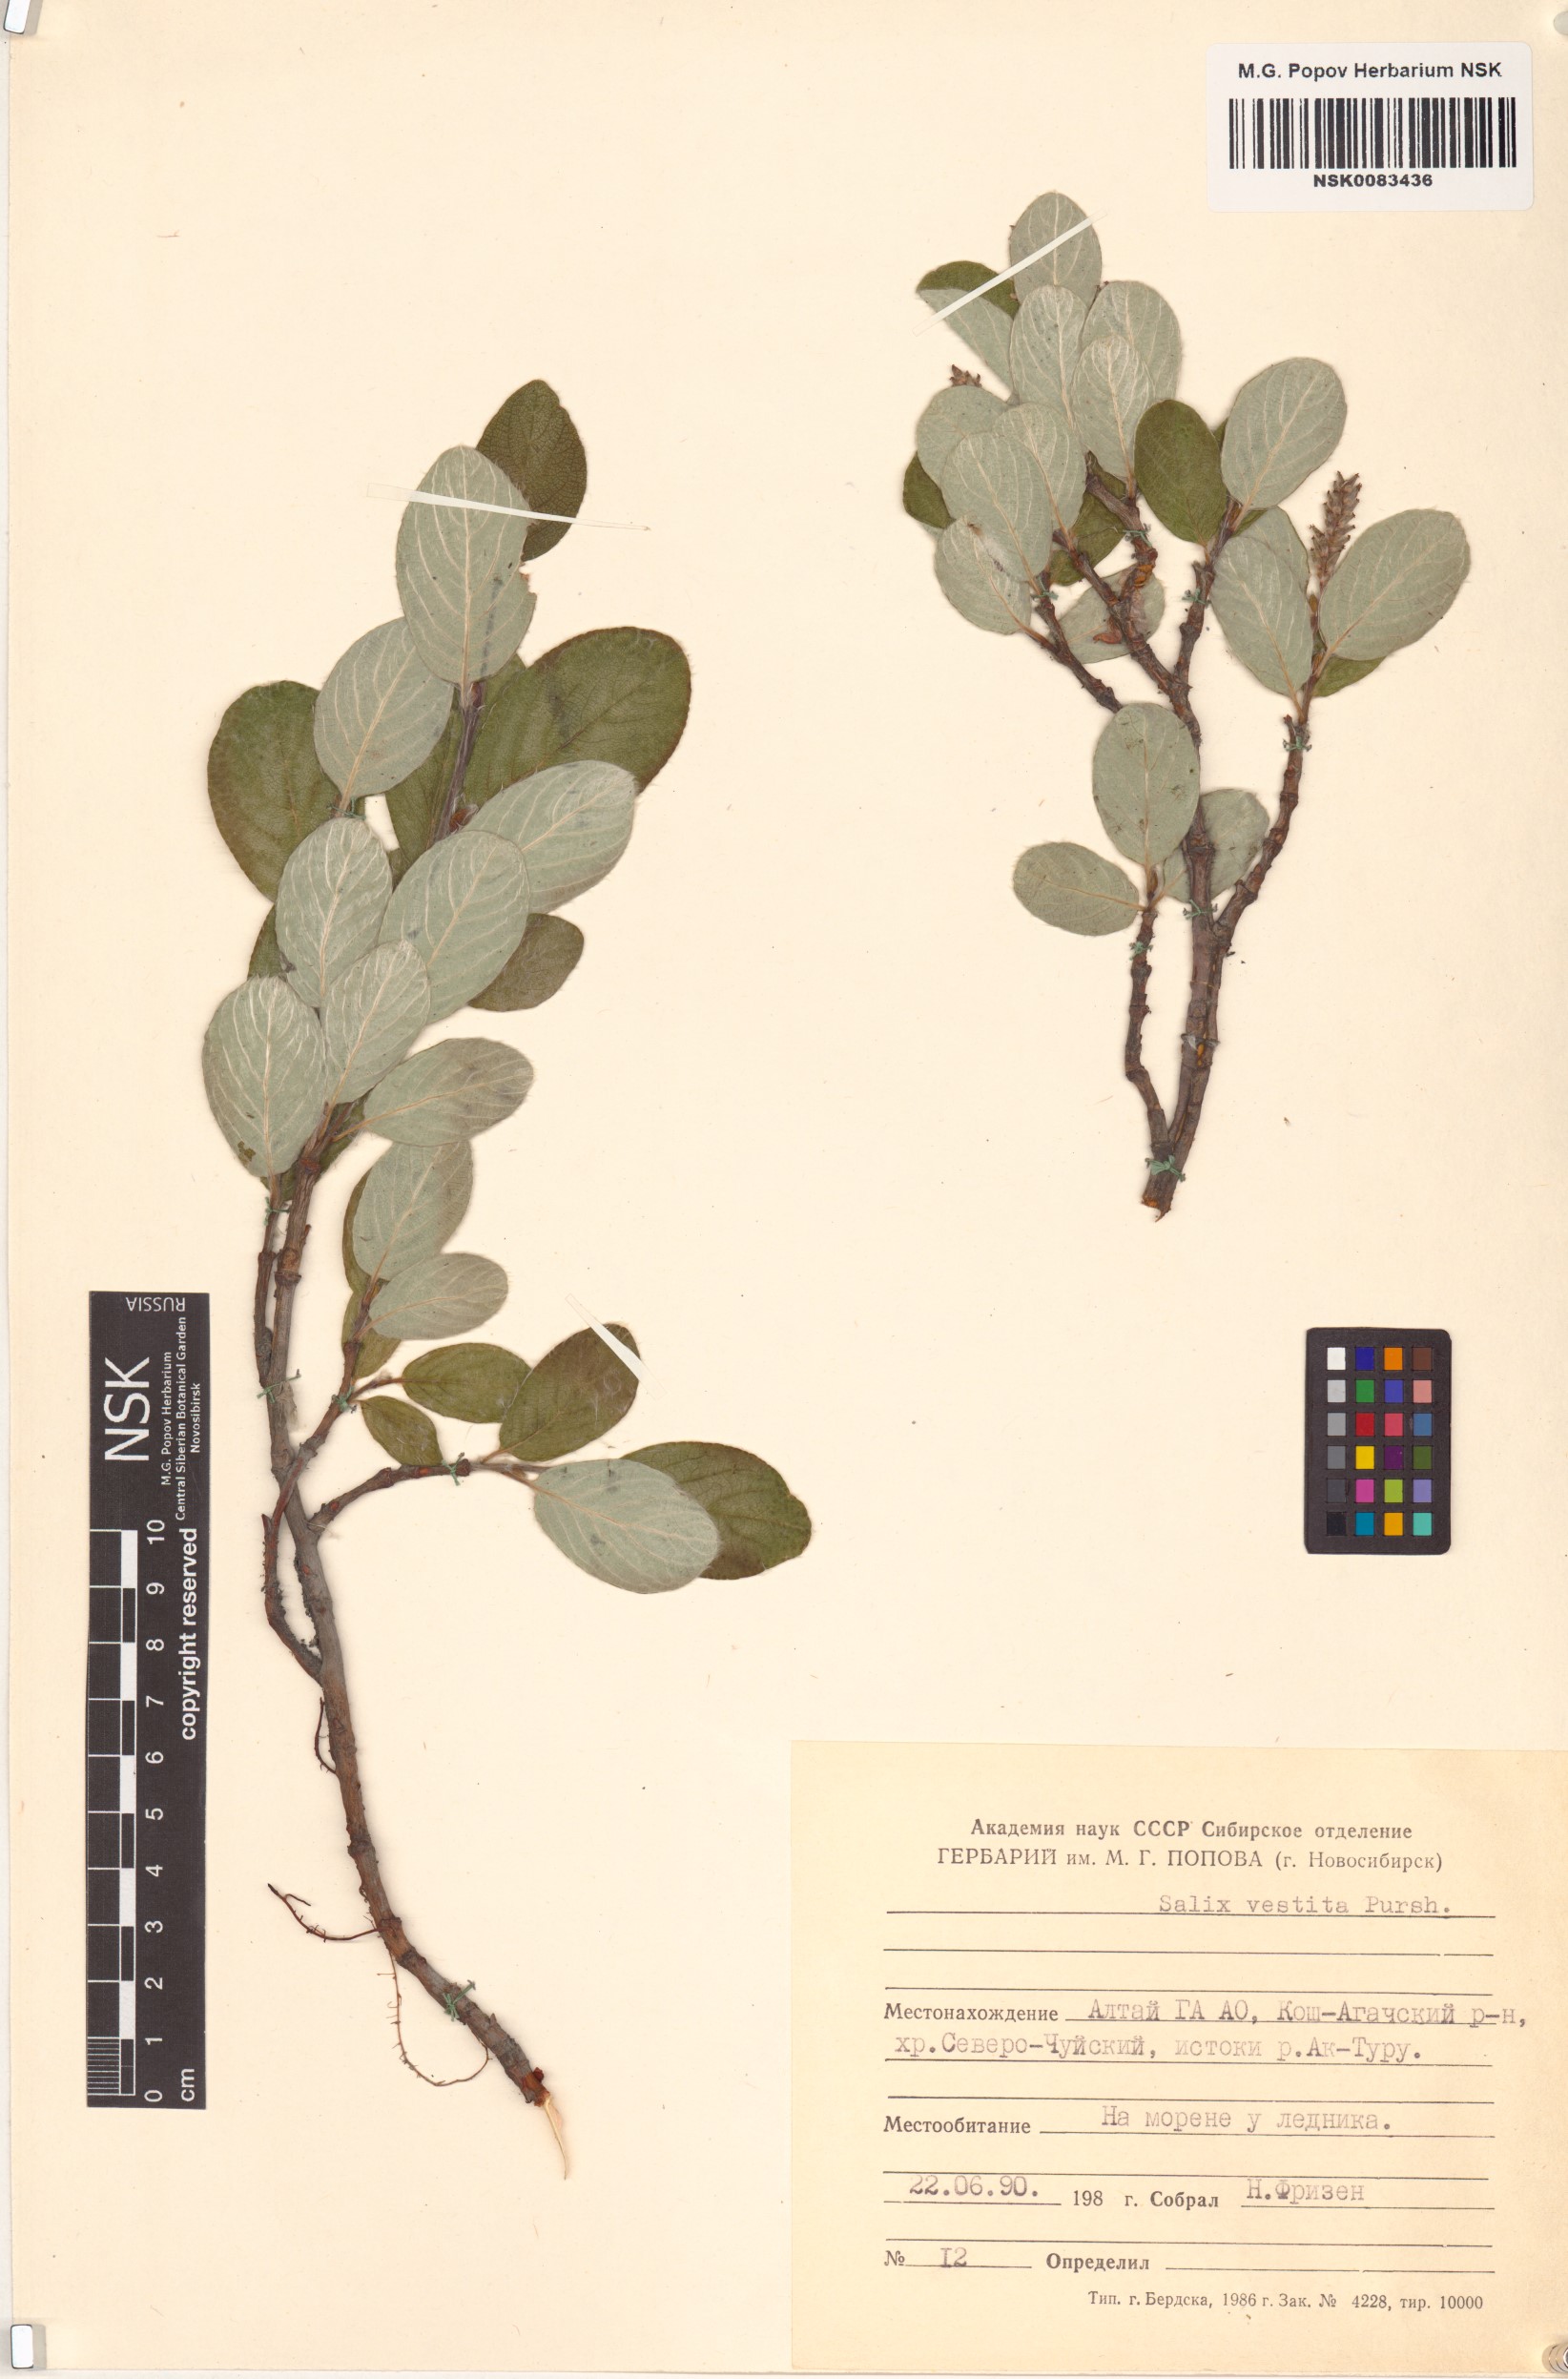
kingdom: Plantae
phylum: Tracheophyta
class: Magnoliopsida
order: Malpighiales
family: Salicaceae
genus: Salix
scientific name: Salix vestita
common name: Hairy willow
